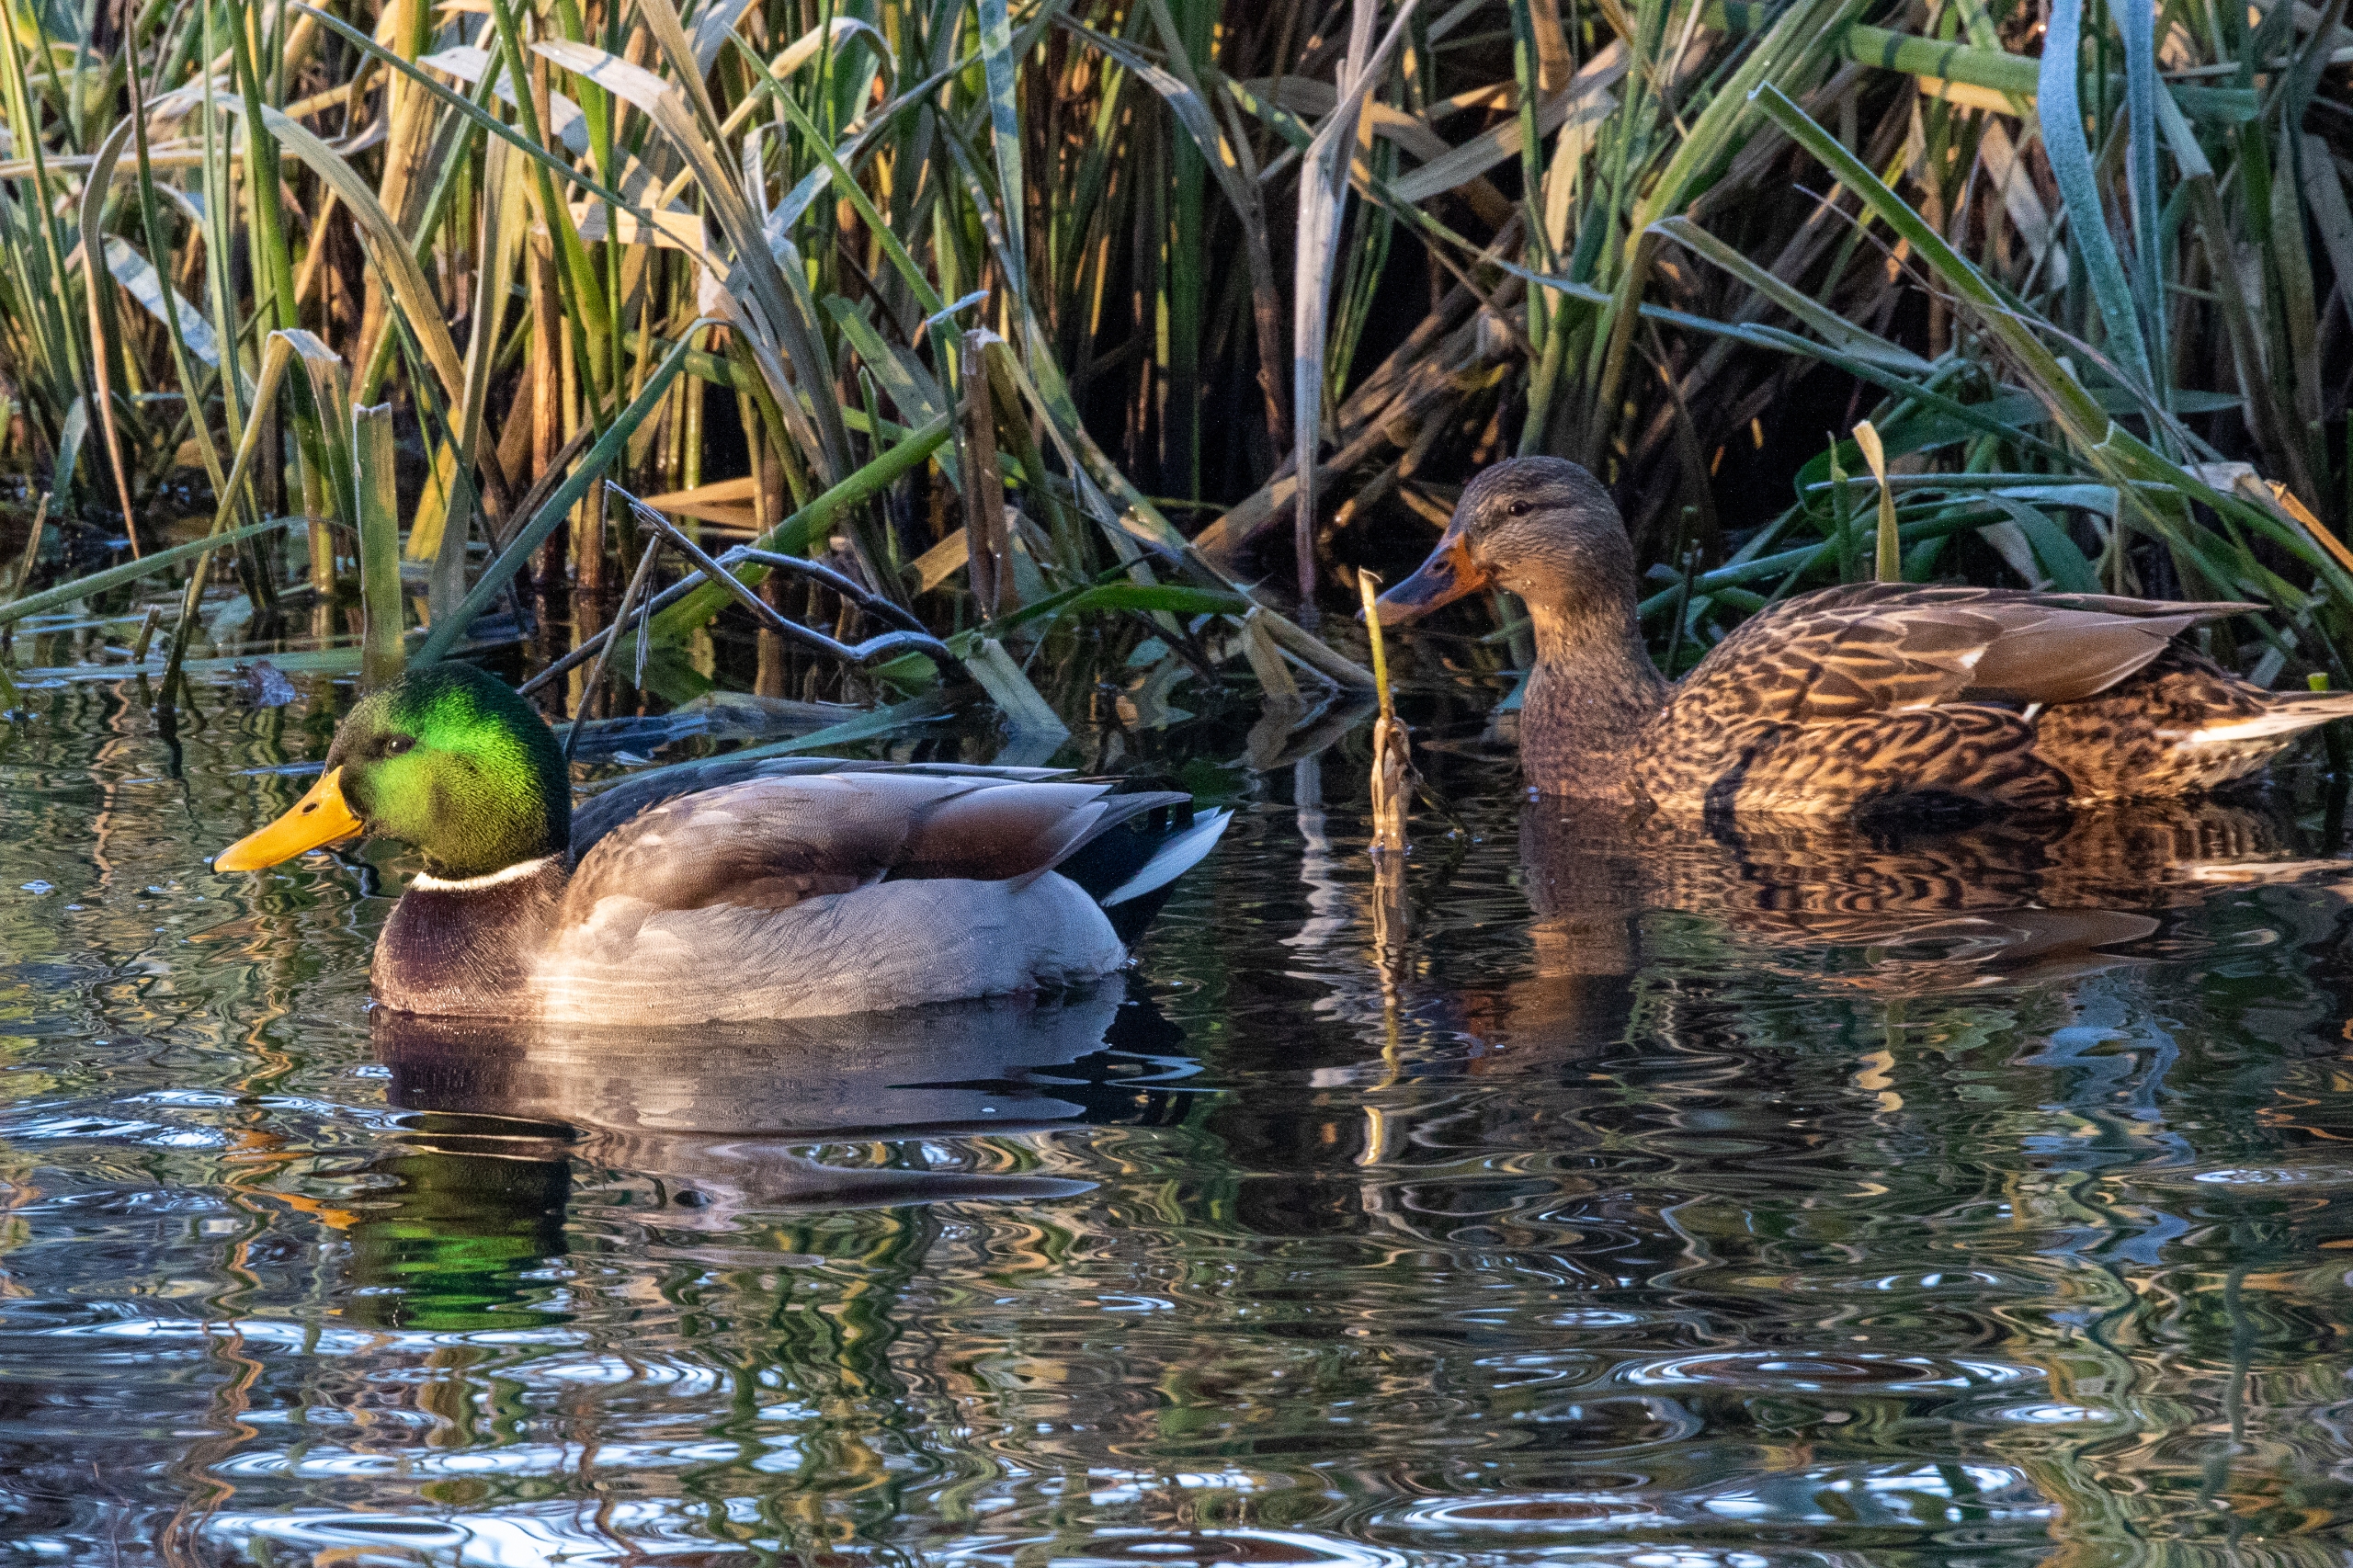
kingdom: Animalia
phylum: Chordata
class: Aves
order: Anseriformes
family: Anatidae
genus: Anas
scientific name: Anas platyrhynchos
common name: Gråand
